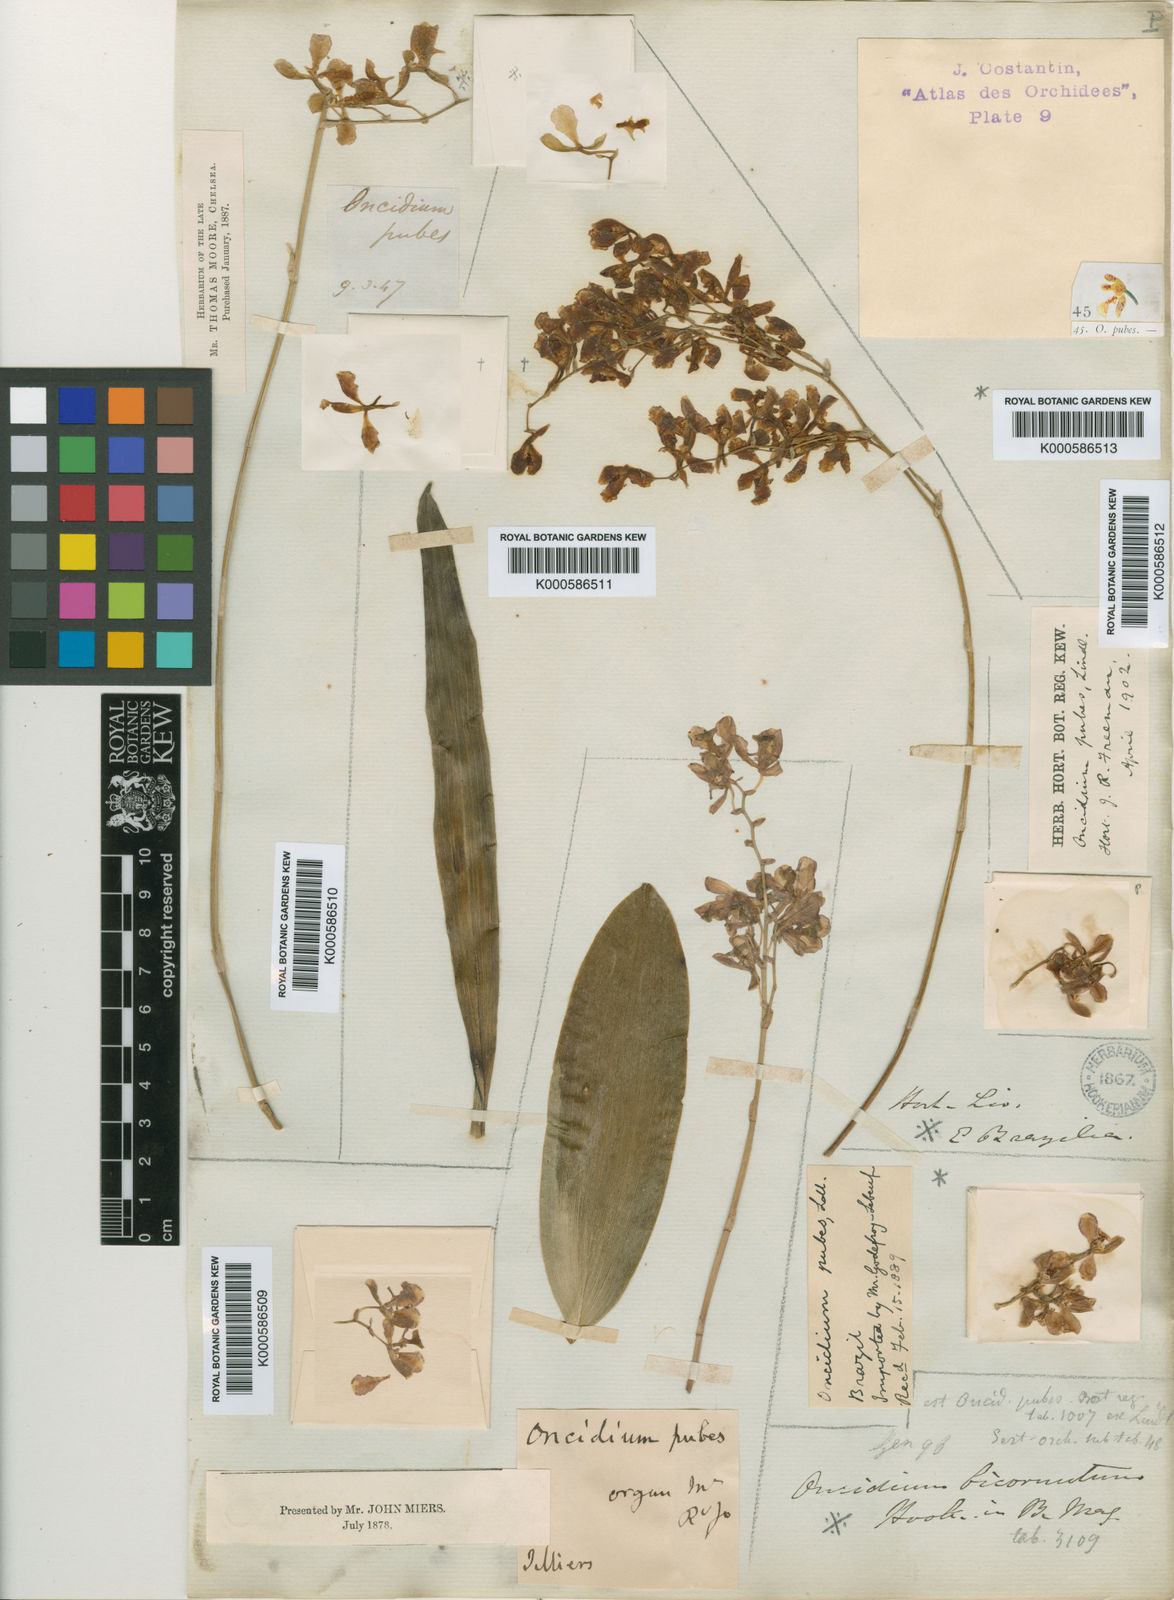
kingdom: Plantae
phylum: Tracheophyta
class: Liliopsida
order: Asparagales
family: Orchidaceae
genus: Gomesa
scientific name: Gomesa pubes
